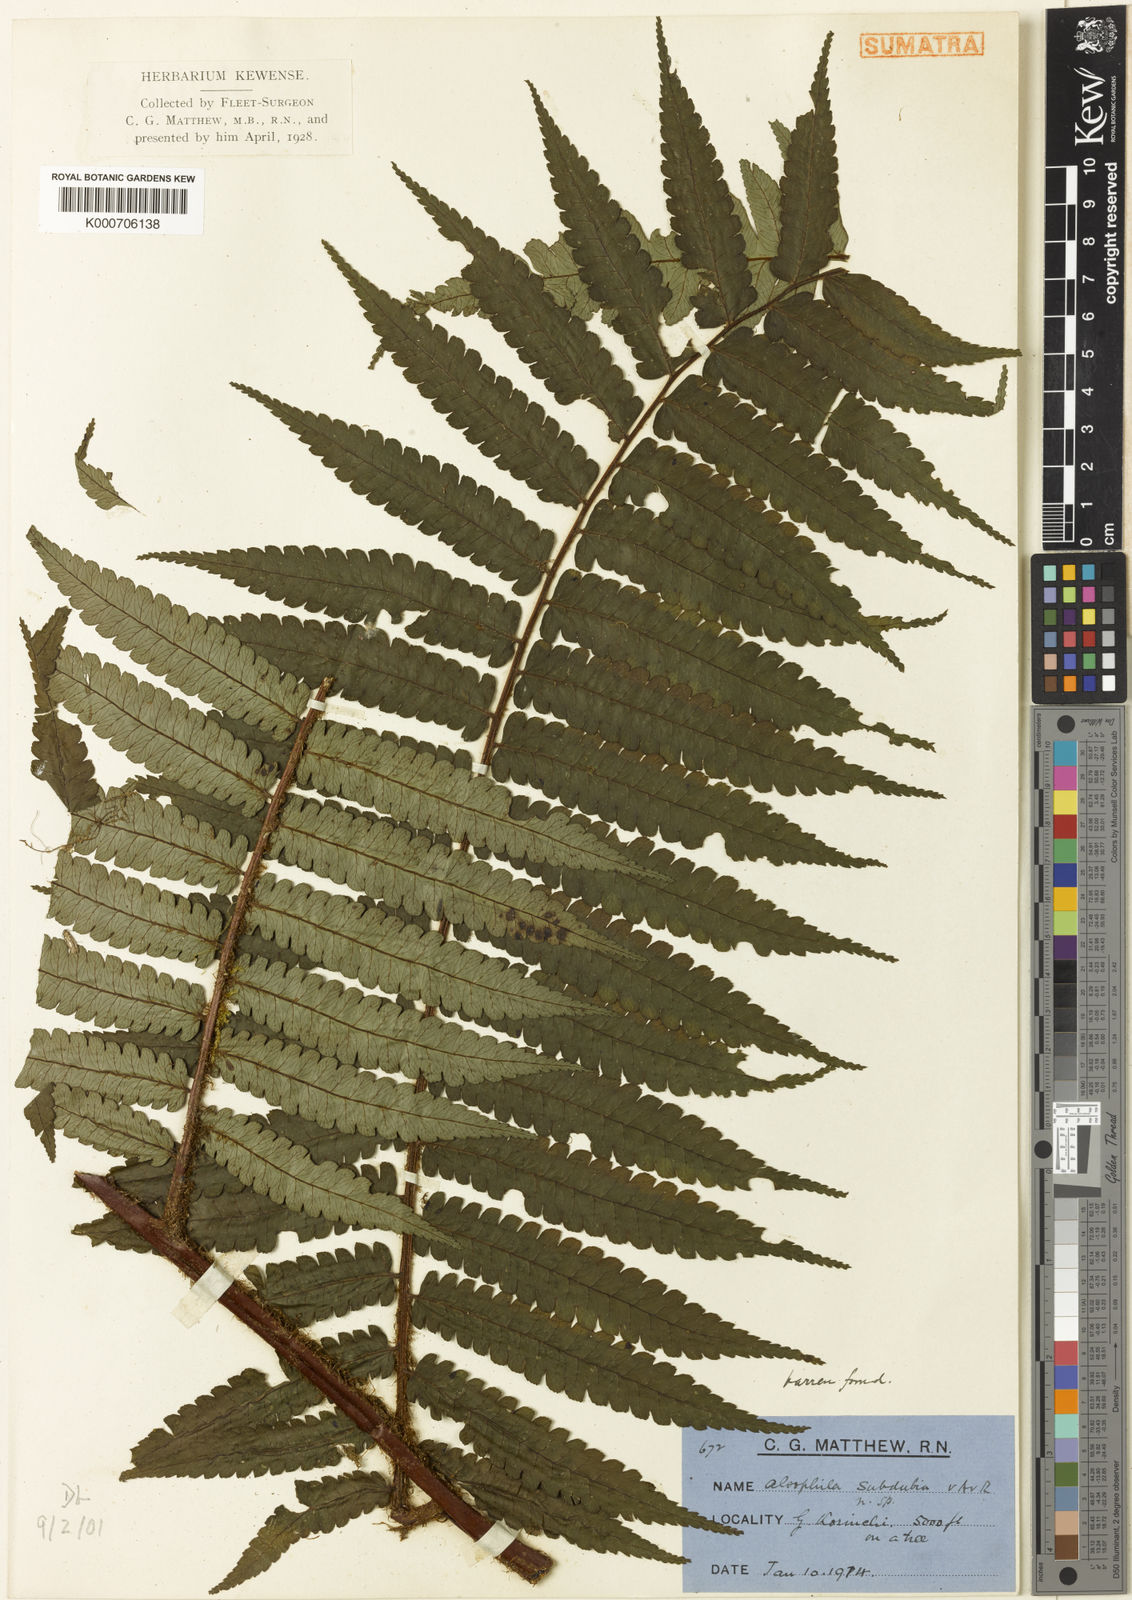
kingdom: Plantae
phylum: Tracheophyta
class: Polypodiopsida
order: Cyatheales
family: Cyatheaceae
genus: Gymnosphaera
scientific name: Gymnosphaera subdubia
